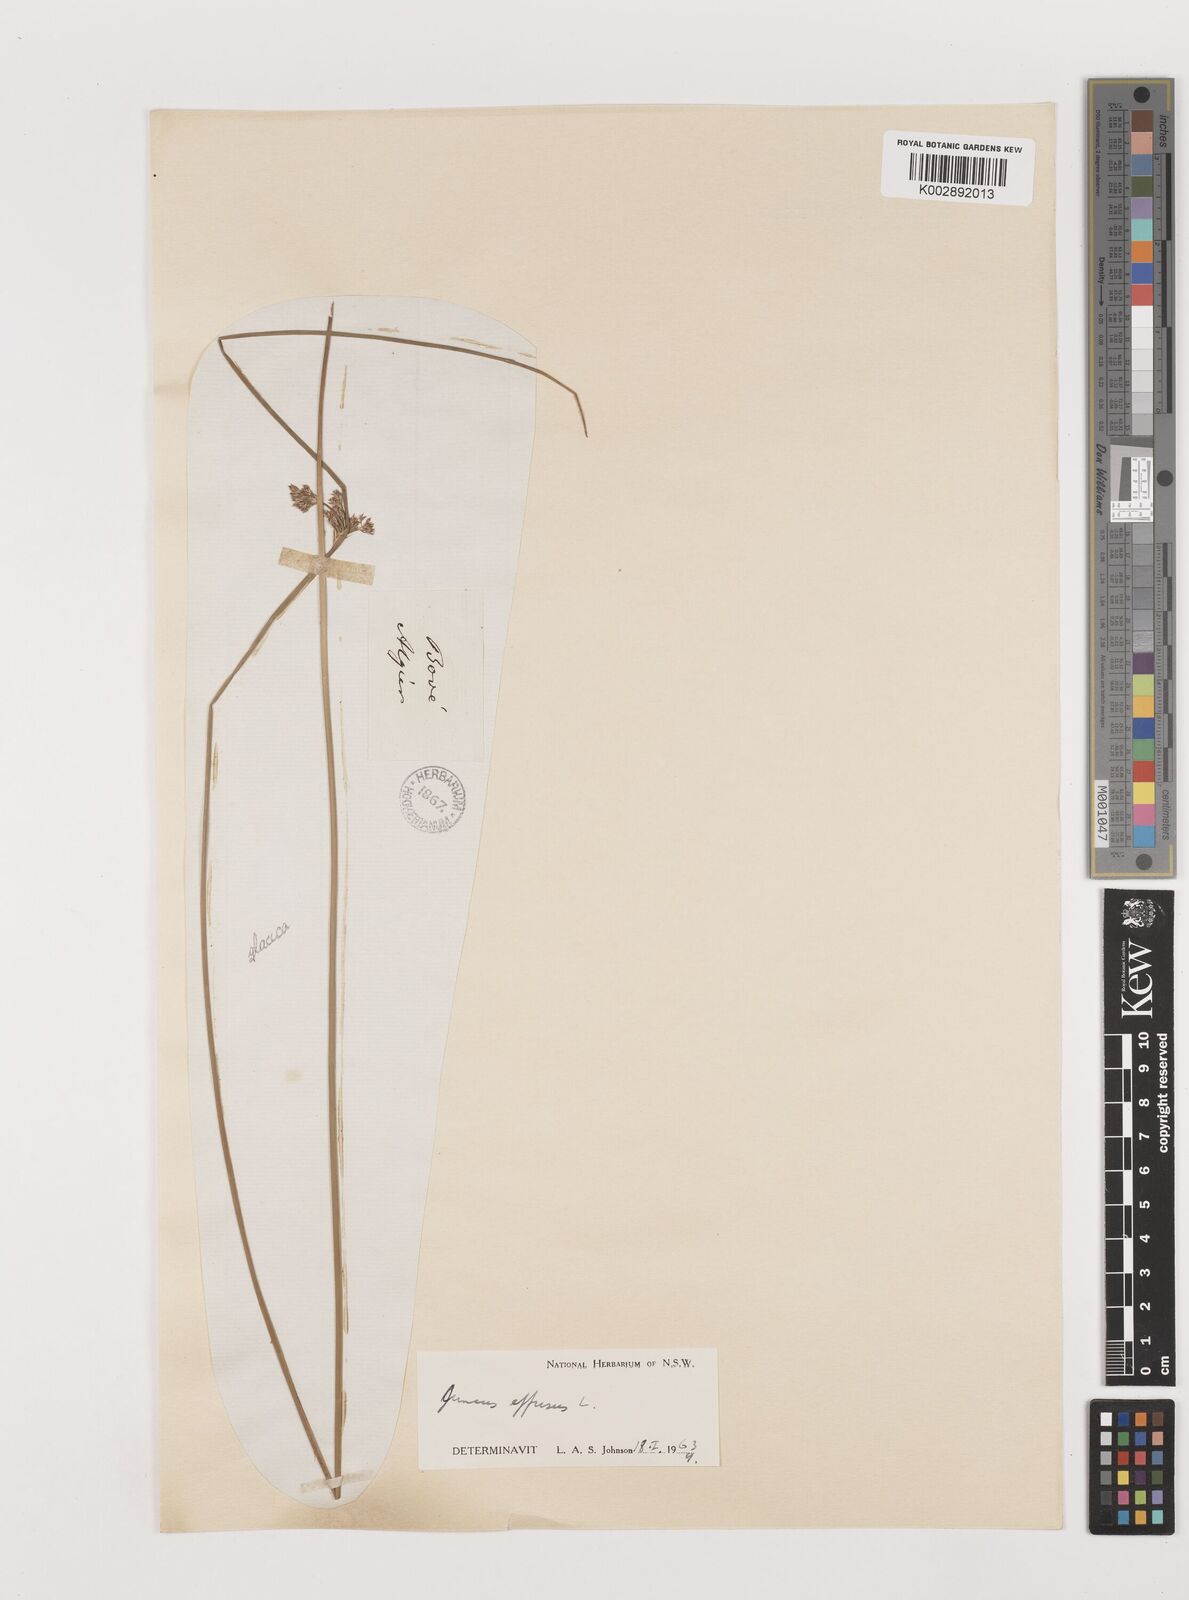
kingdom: Plantae
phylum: Tracheophyta
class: Liliopsida
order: Poales
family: Juncaceae
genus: Juncus
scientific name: Juncus effusus
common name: Soft rush
